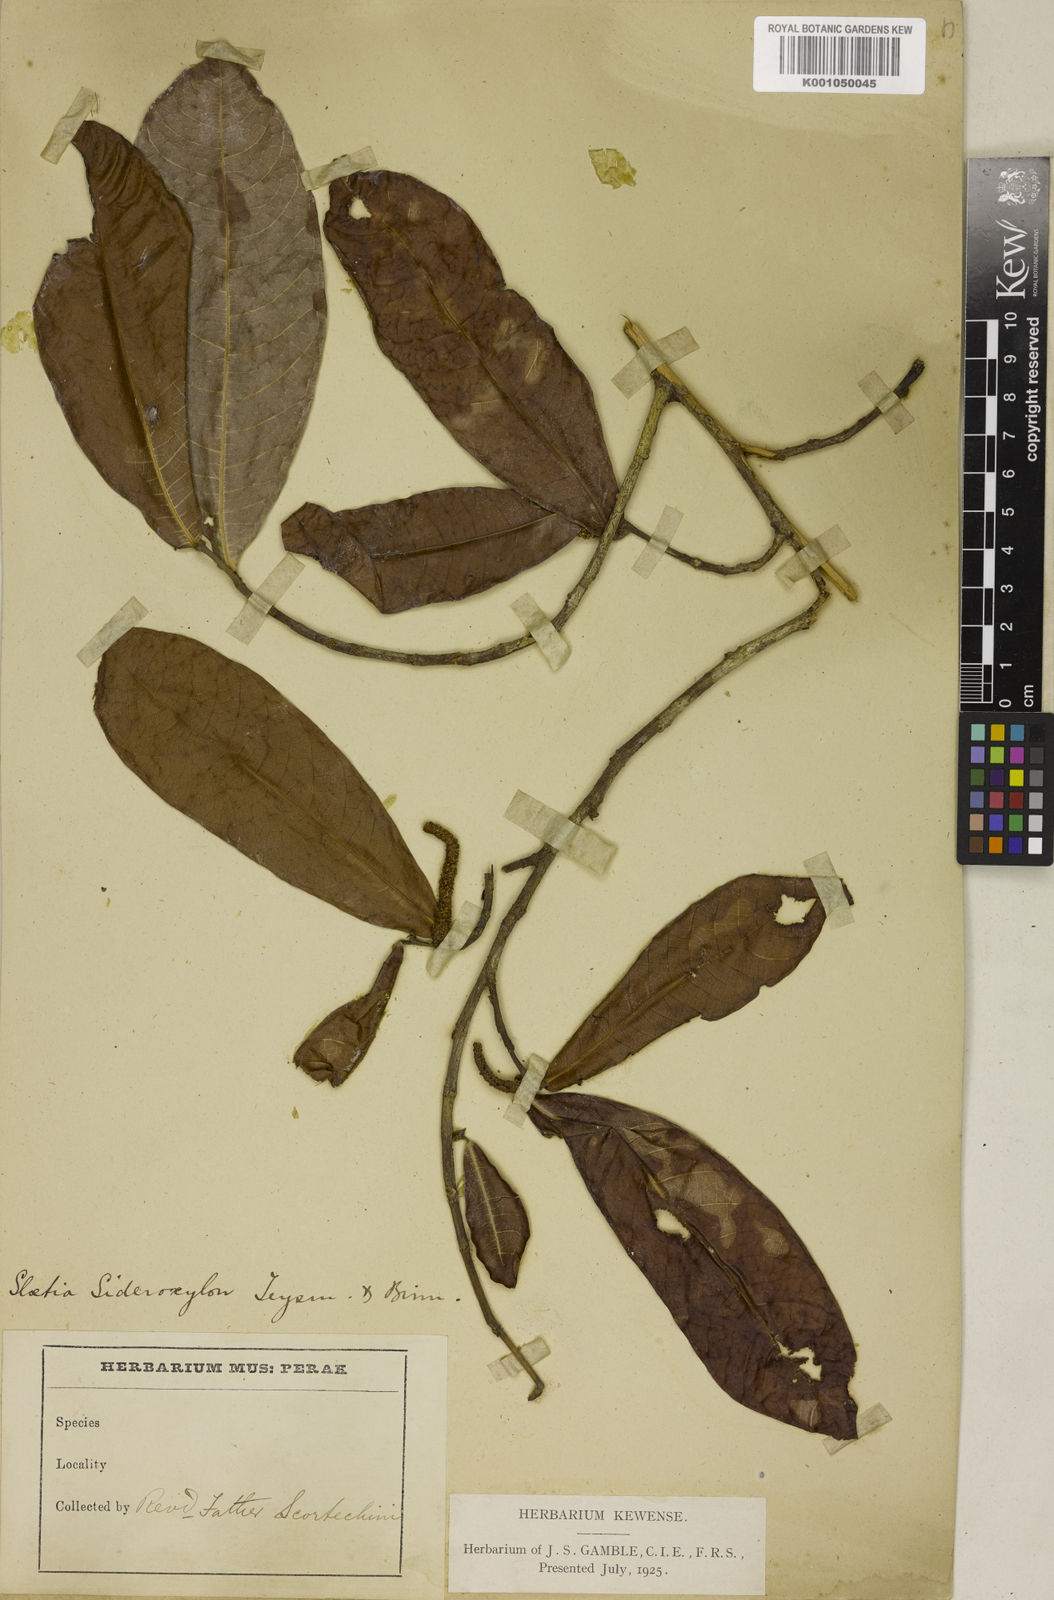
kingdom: Plantae
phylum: Tracheophyta
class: Magnoliopsida
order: Rosales
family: Moraceae
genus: Sloetia
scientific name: Sloetia elongata
